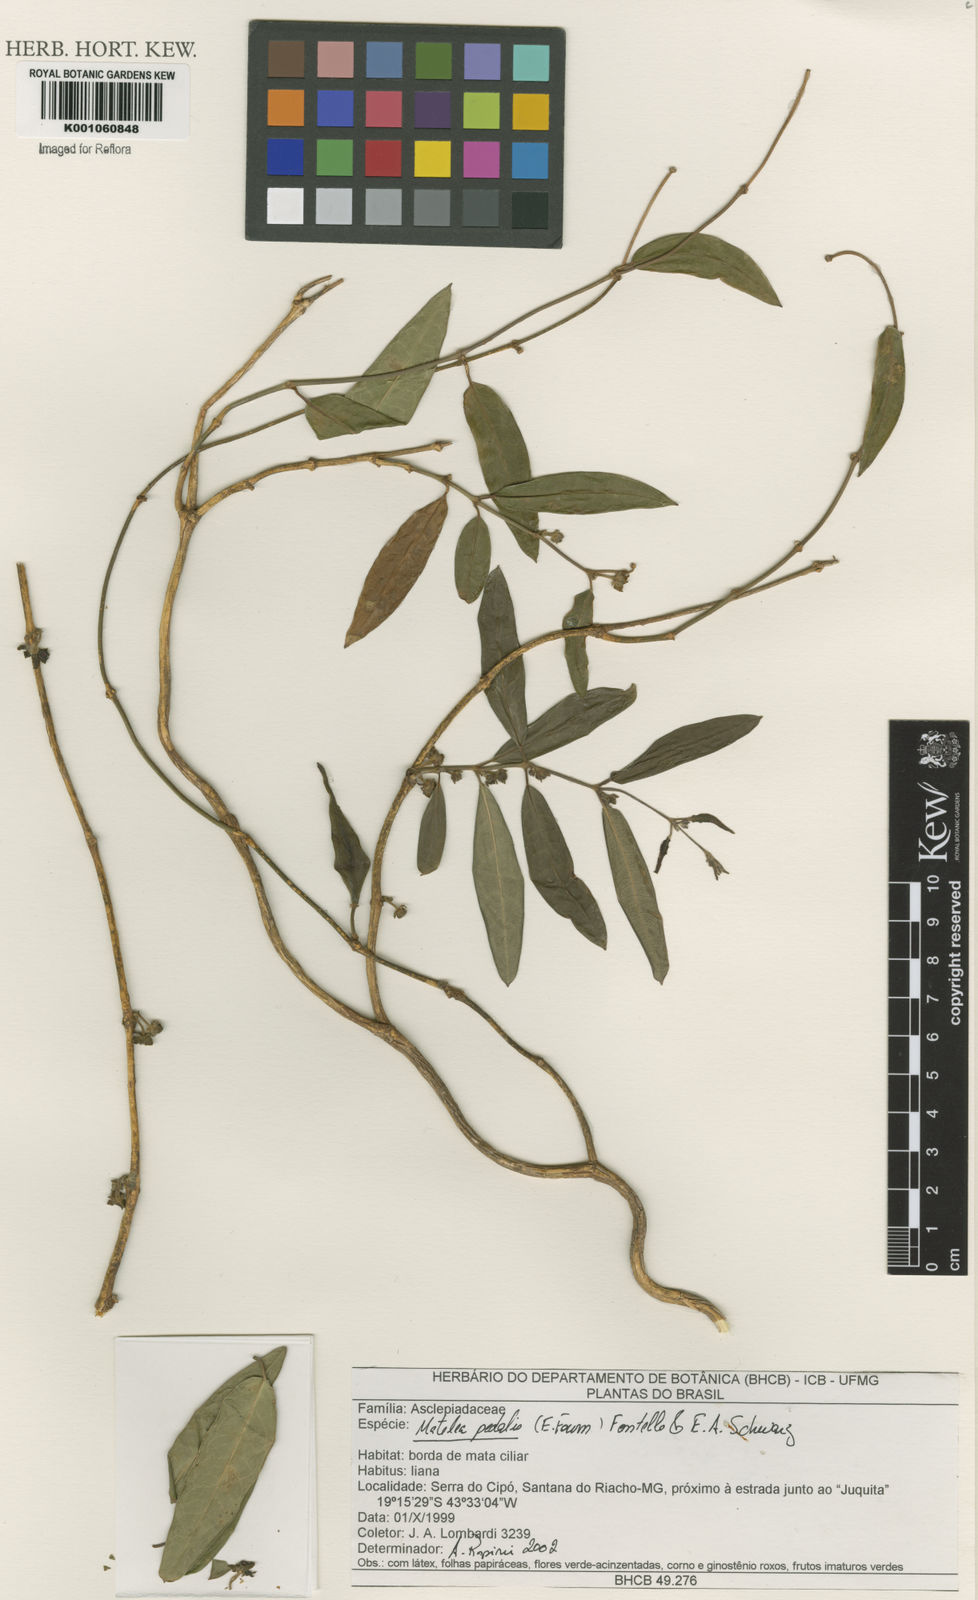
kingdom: Plantae
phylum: Tracheophyta
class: Magnoliopsida
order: Gentianales
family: Apocynaceae
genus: Matelea
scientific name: Matelea pedalis
